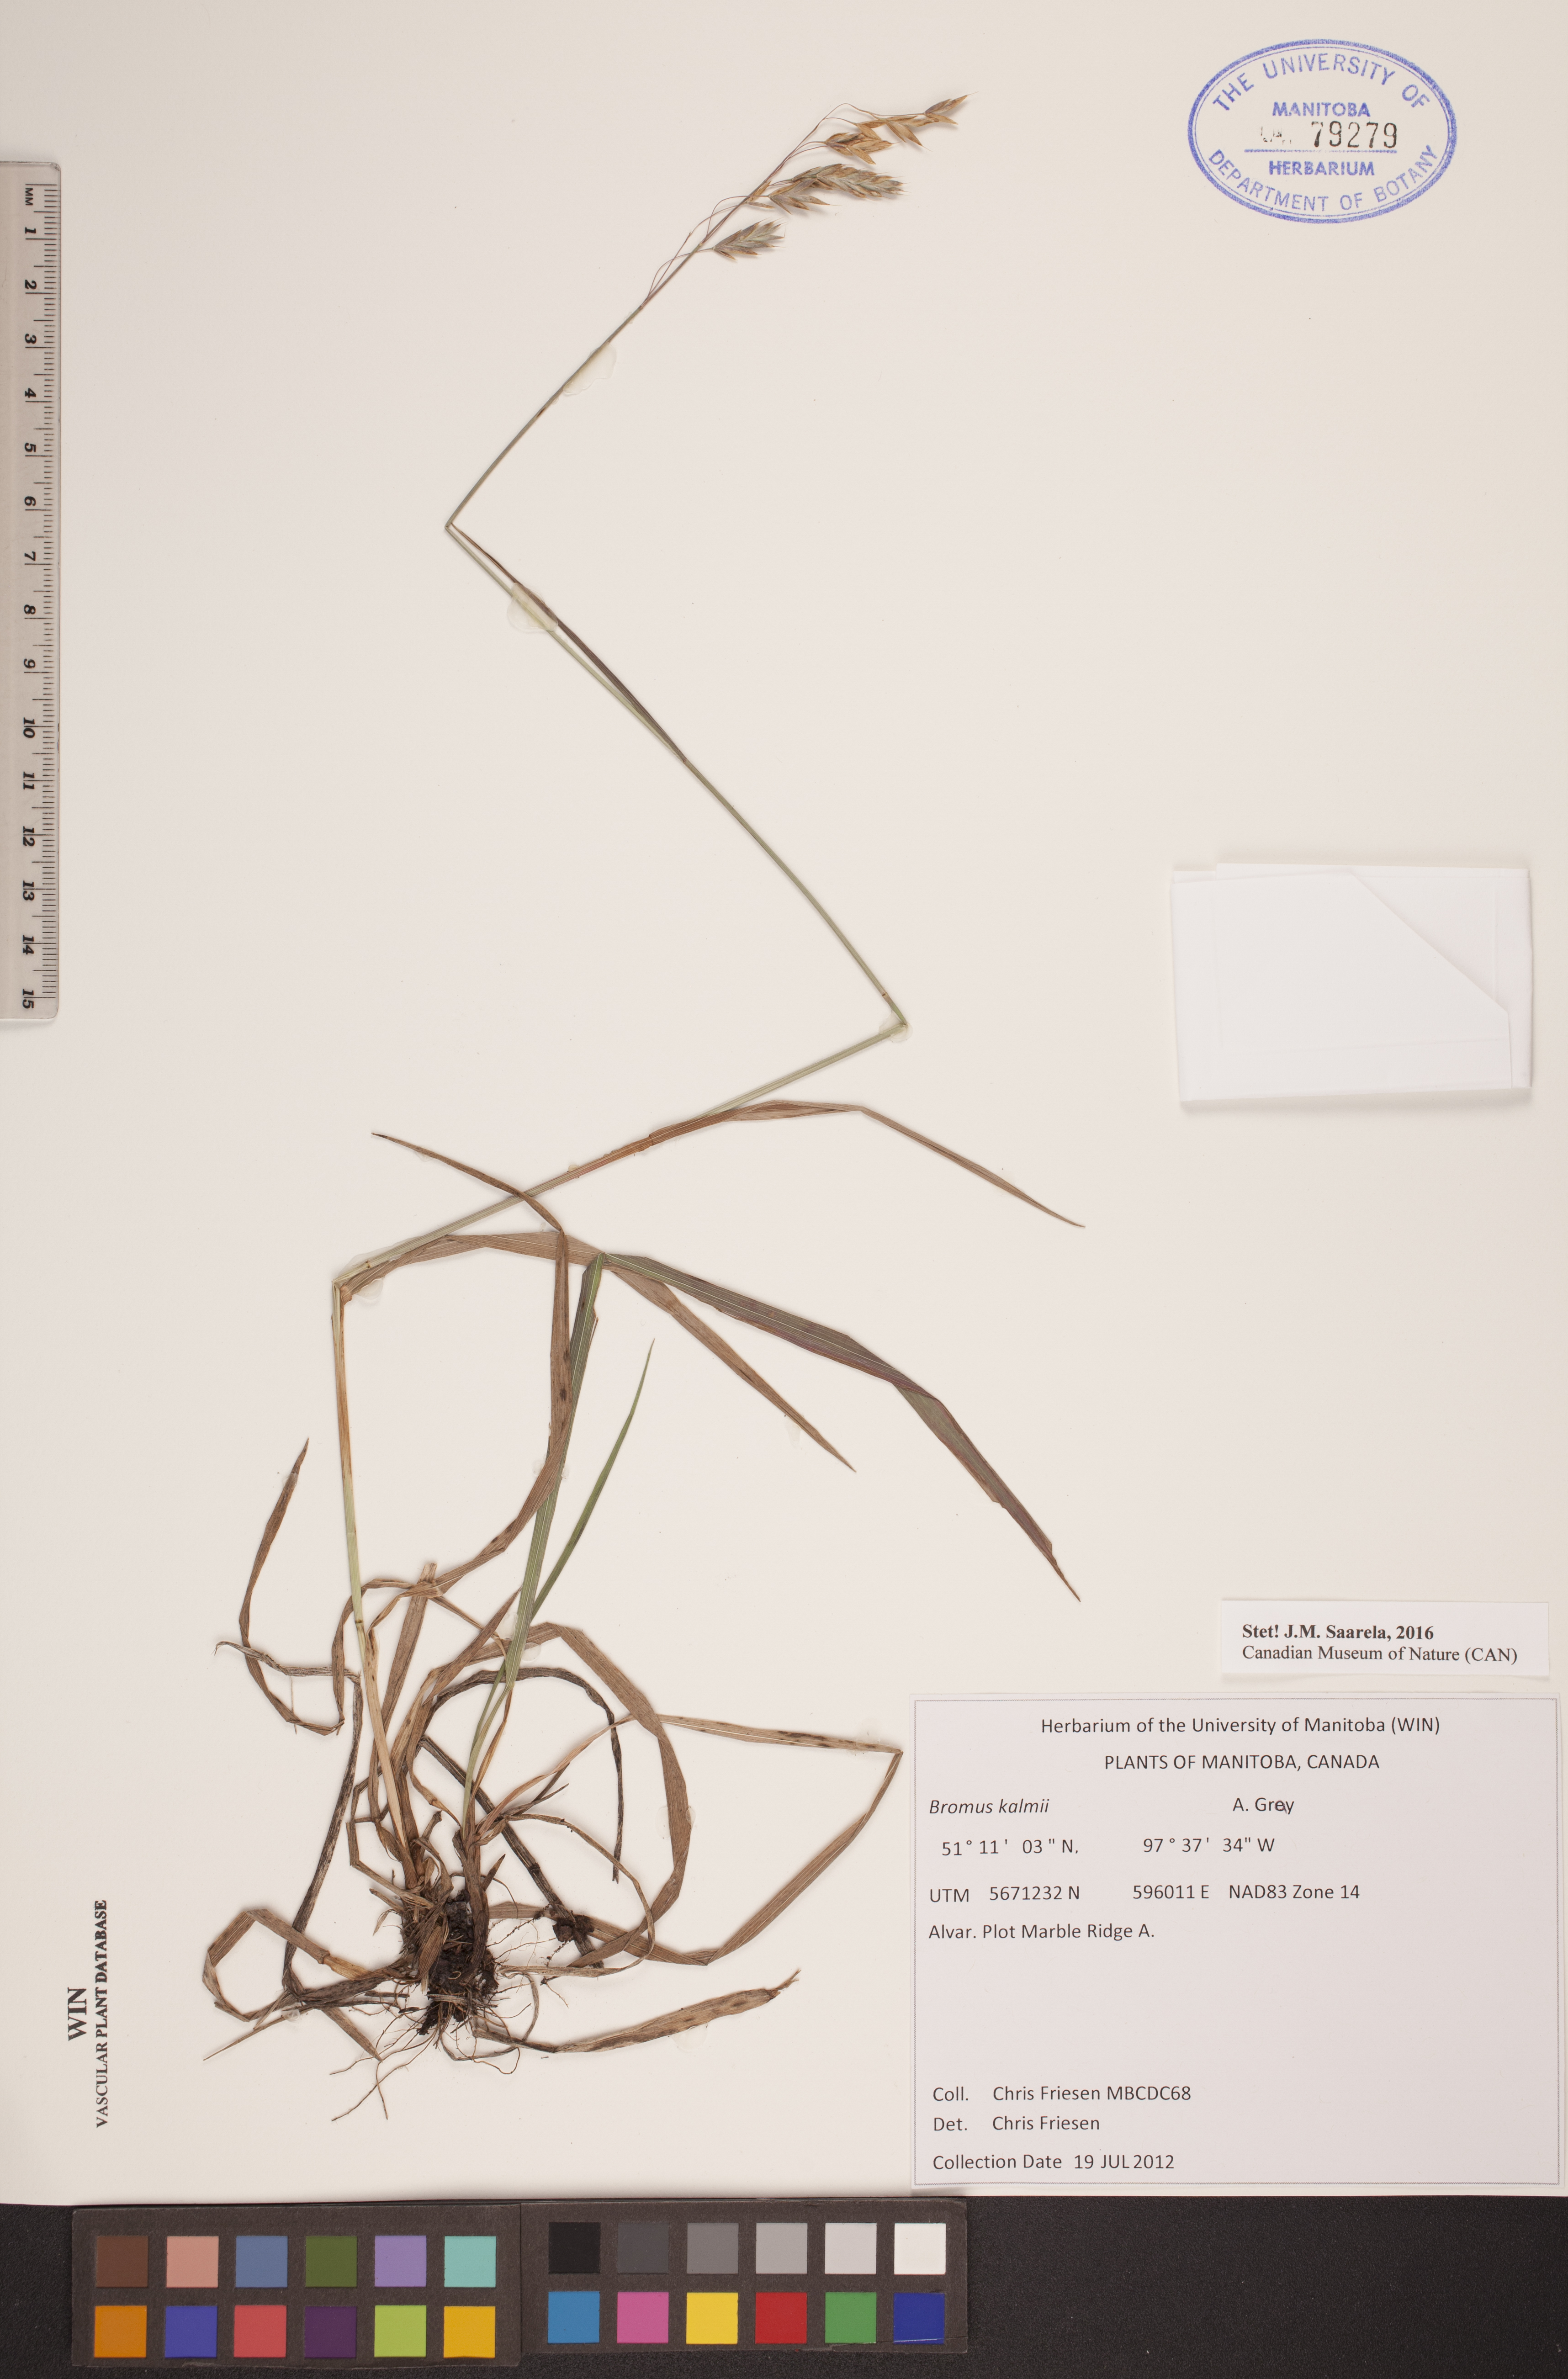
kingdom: Plantae
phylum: Tracheophyta
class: Liliopsida
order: Poales
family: Poaceae
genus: Bromus
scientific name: Bromus kalmii
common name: Kalm brome
